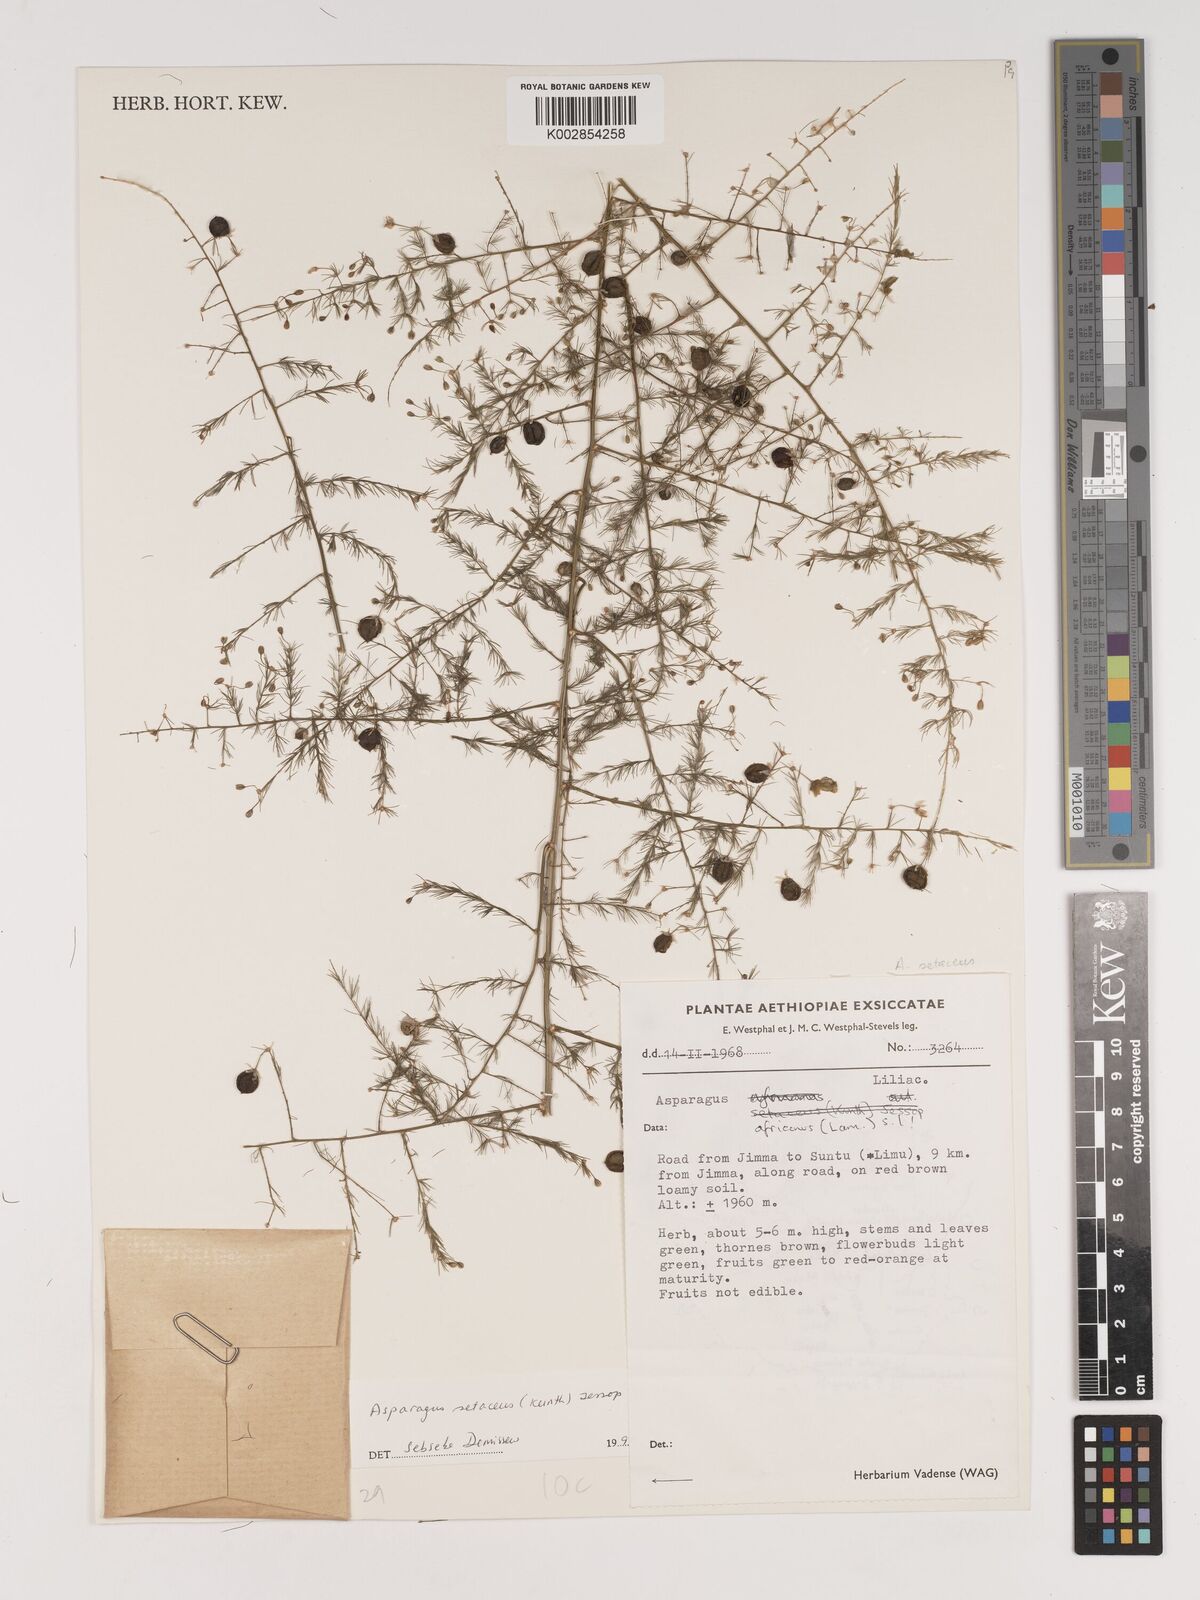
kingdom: Plantae
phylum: Tracheophyta
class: Liliopsida
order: Asparagales
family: Asparagaceae
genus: Asparagus
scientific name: Asparagus setaceus
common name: Common asparagus fern
